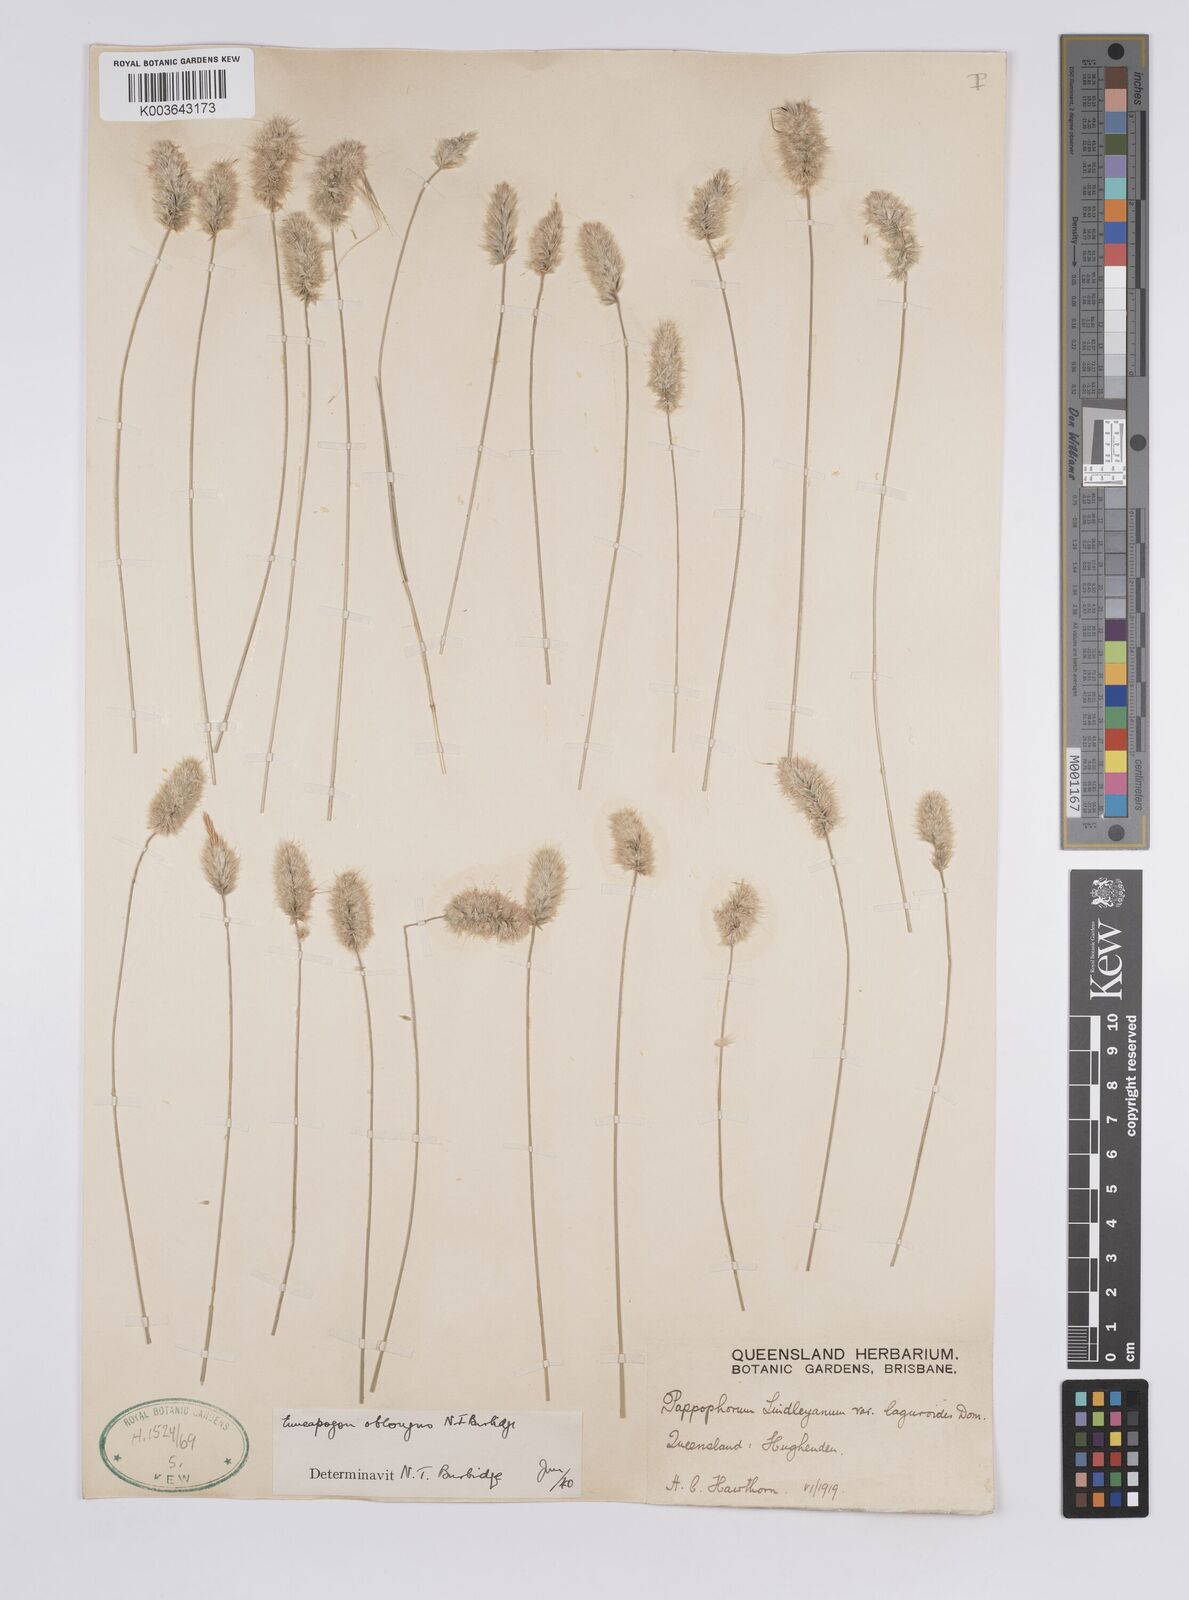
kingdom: Plantae
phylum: Tracheophyta
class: Liliopsida
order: Poales
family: Poaceae
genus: Enneapogon
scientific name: Enneapogon lindleyanus
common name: Conetop nineawn
